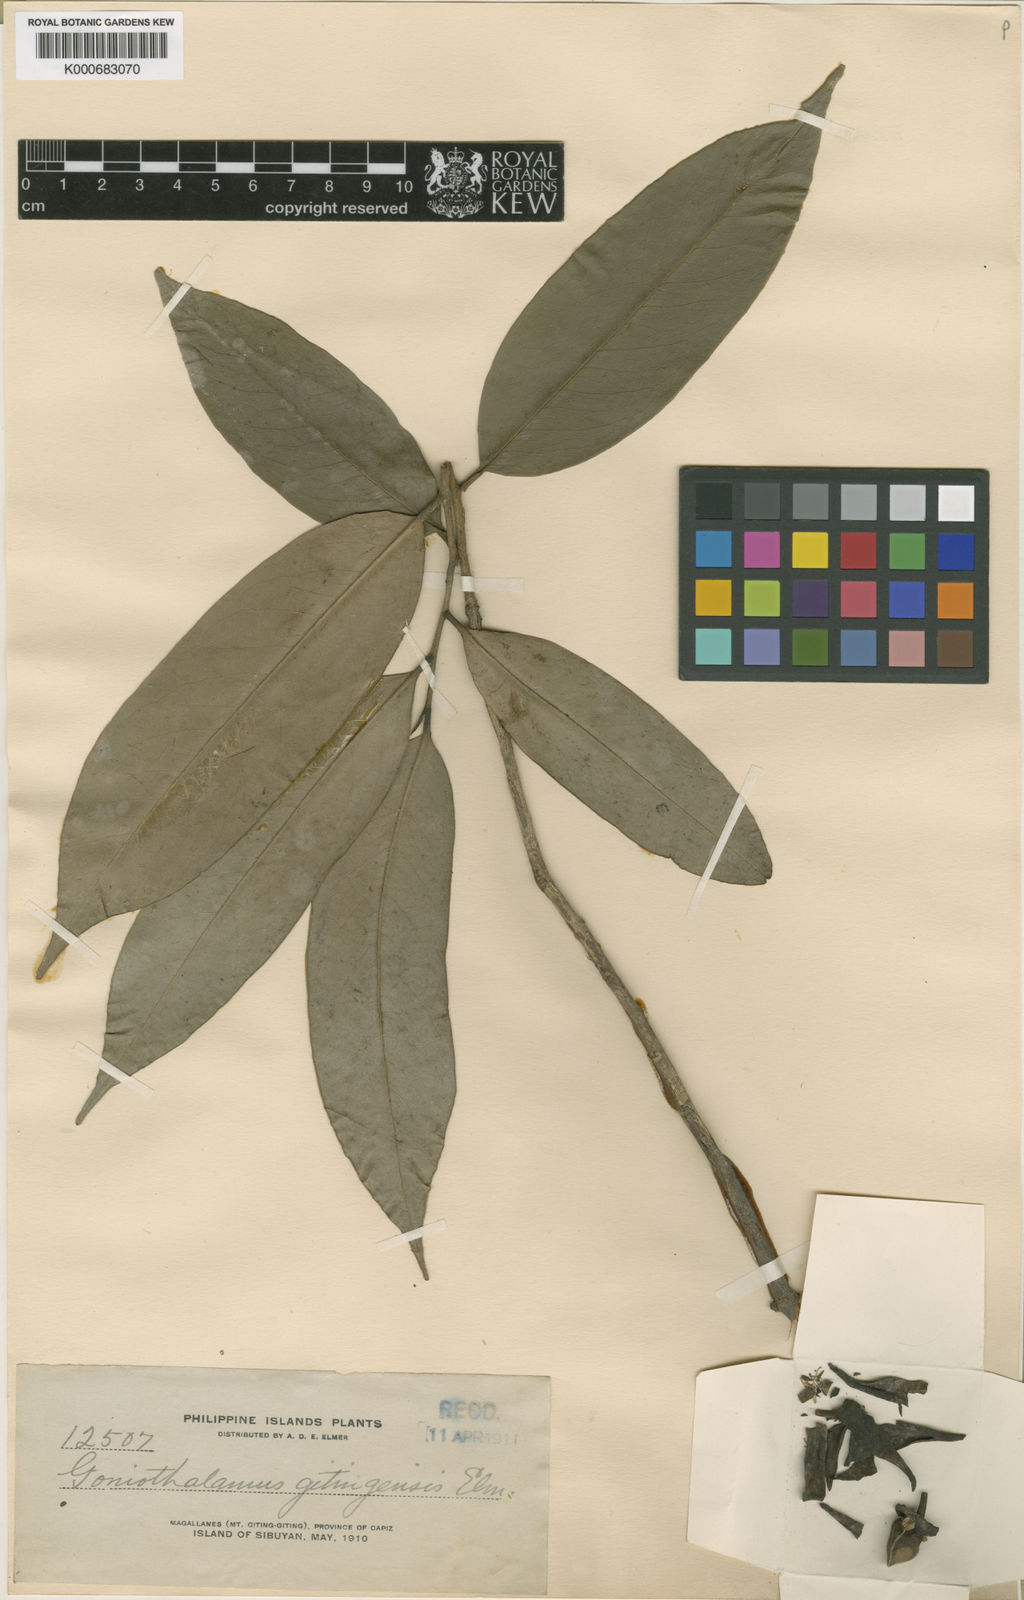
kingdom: Plantae
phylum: Tracheophyta
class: Magnoliopsida
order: Magnoliales
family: Annonaceae
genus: Goniothalamus
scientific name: Goniothalamus amuyon
